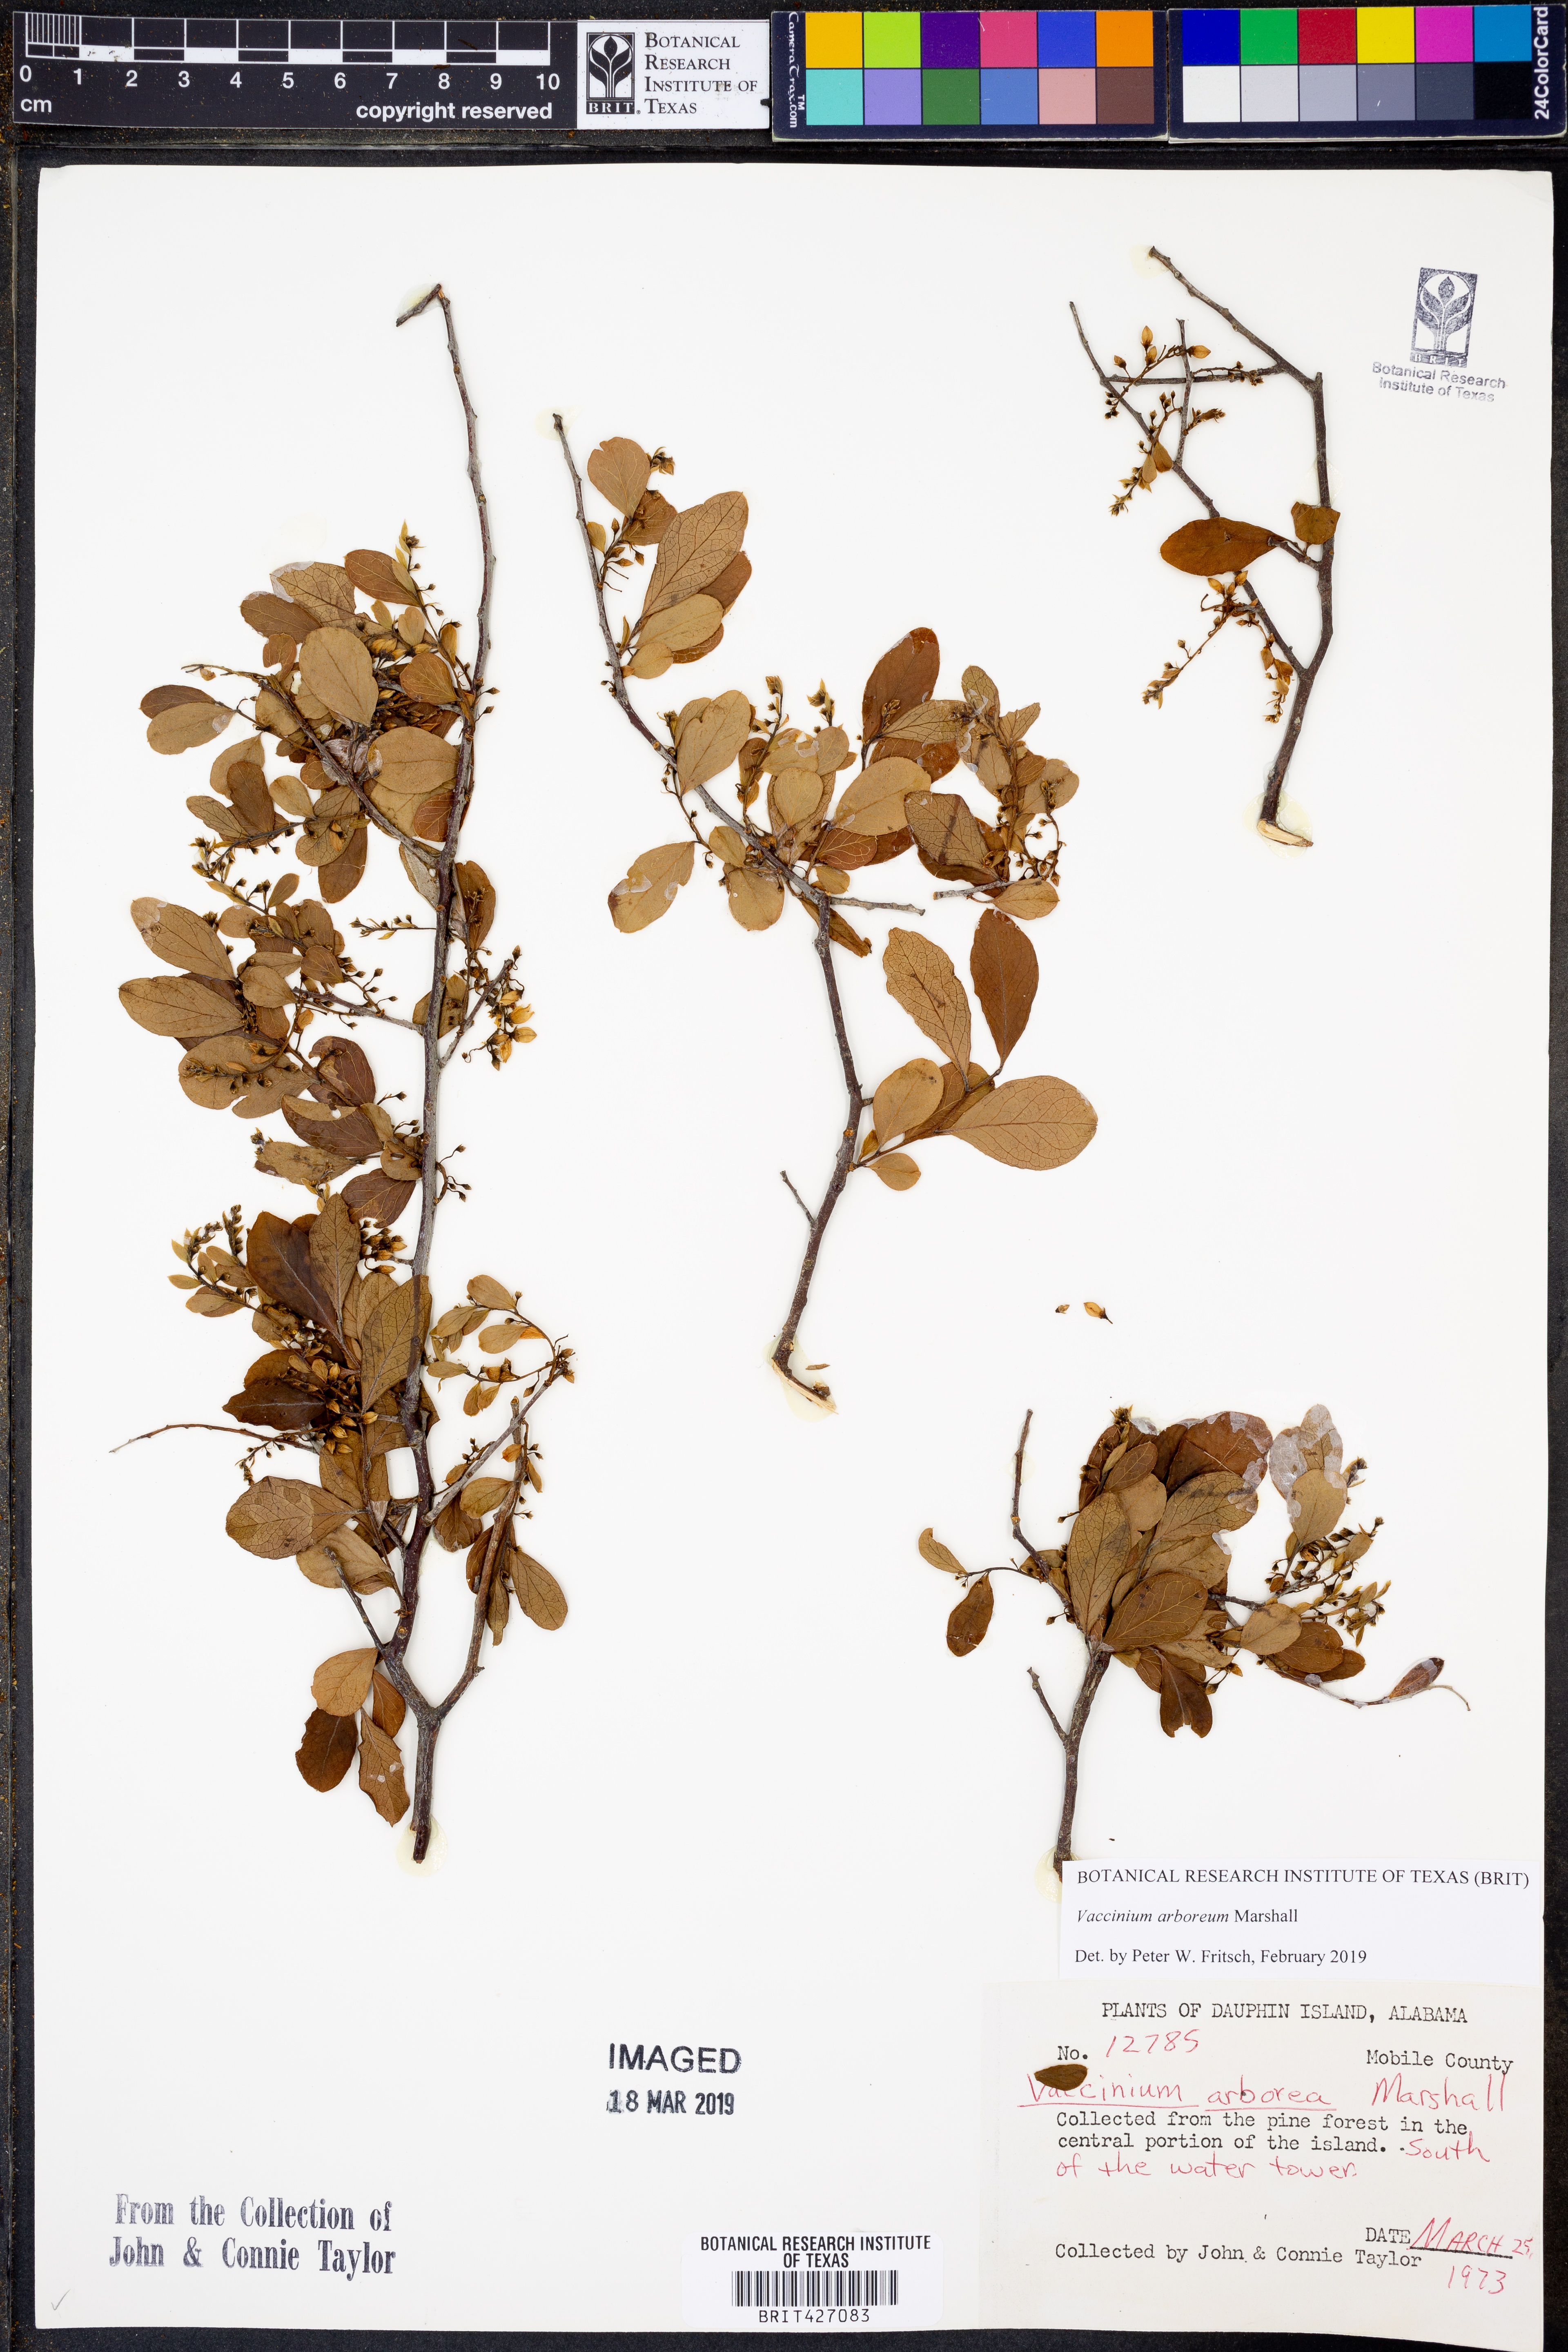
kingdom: Plantae
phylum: Tracheophyta
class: Magnoliopsida
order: Ericales
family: Ericaceae
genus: Vaccinium
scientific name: Vaccinium arboreum
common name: Farkleberry
